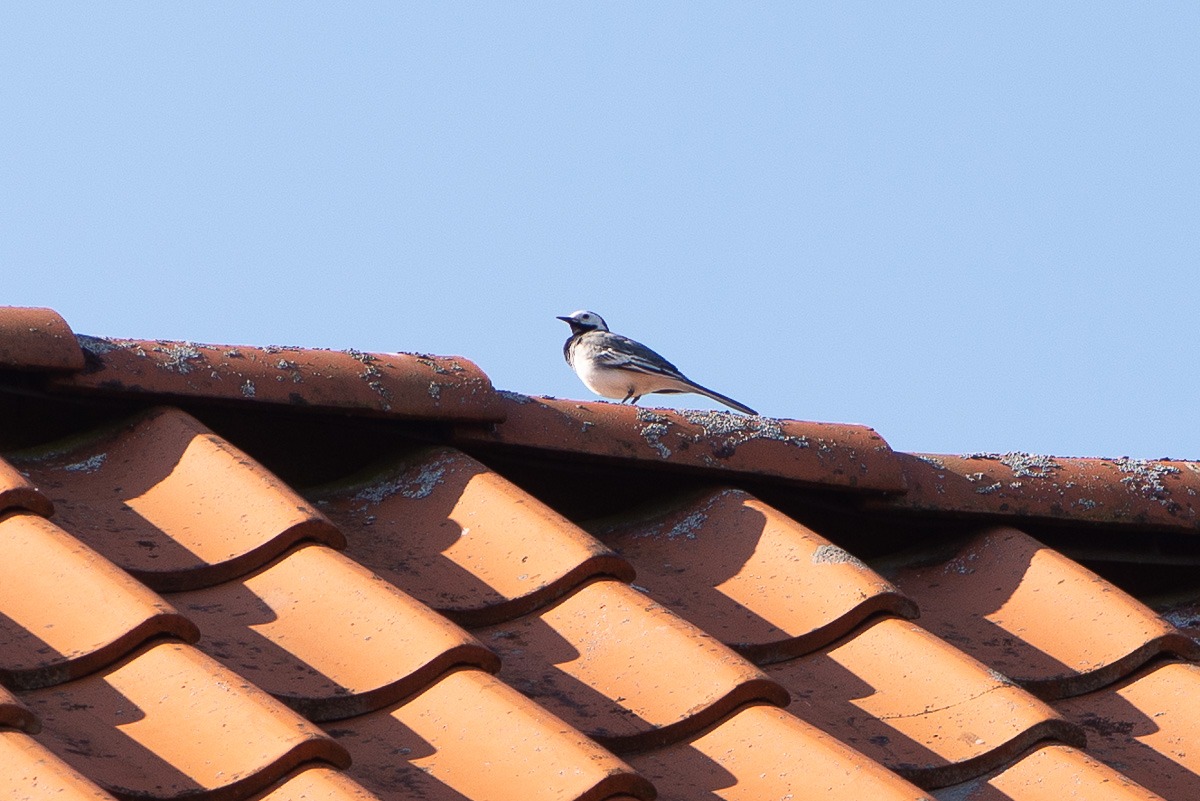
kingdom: Animalia
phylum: Chordata
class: Aves
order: Passeriformes
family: Motacillidae
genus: Motacilla
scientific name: Motacilla alba
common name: Hvid vipstjert
